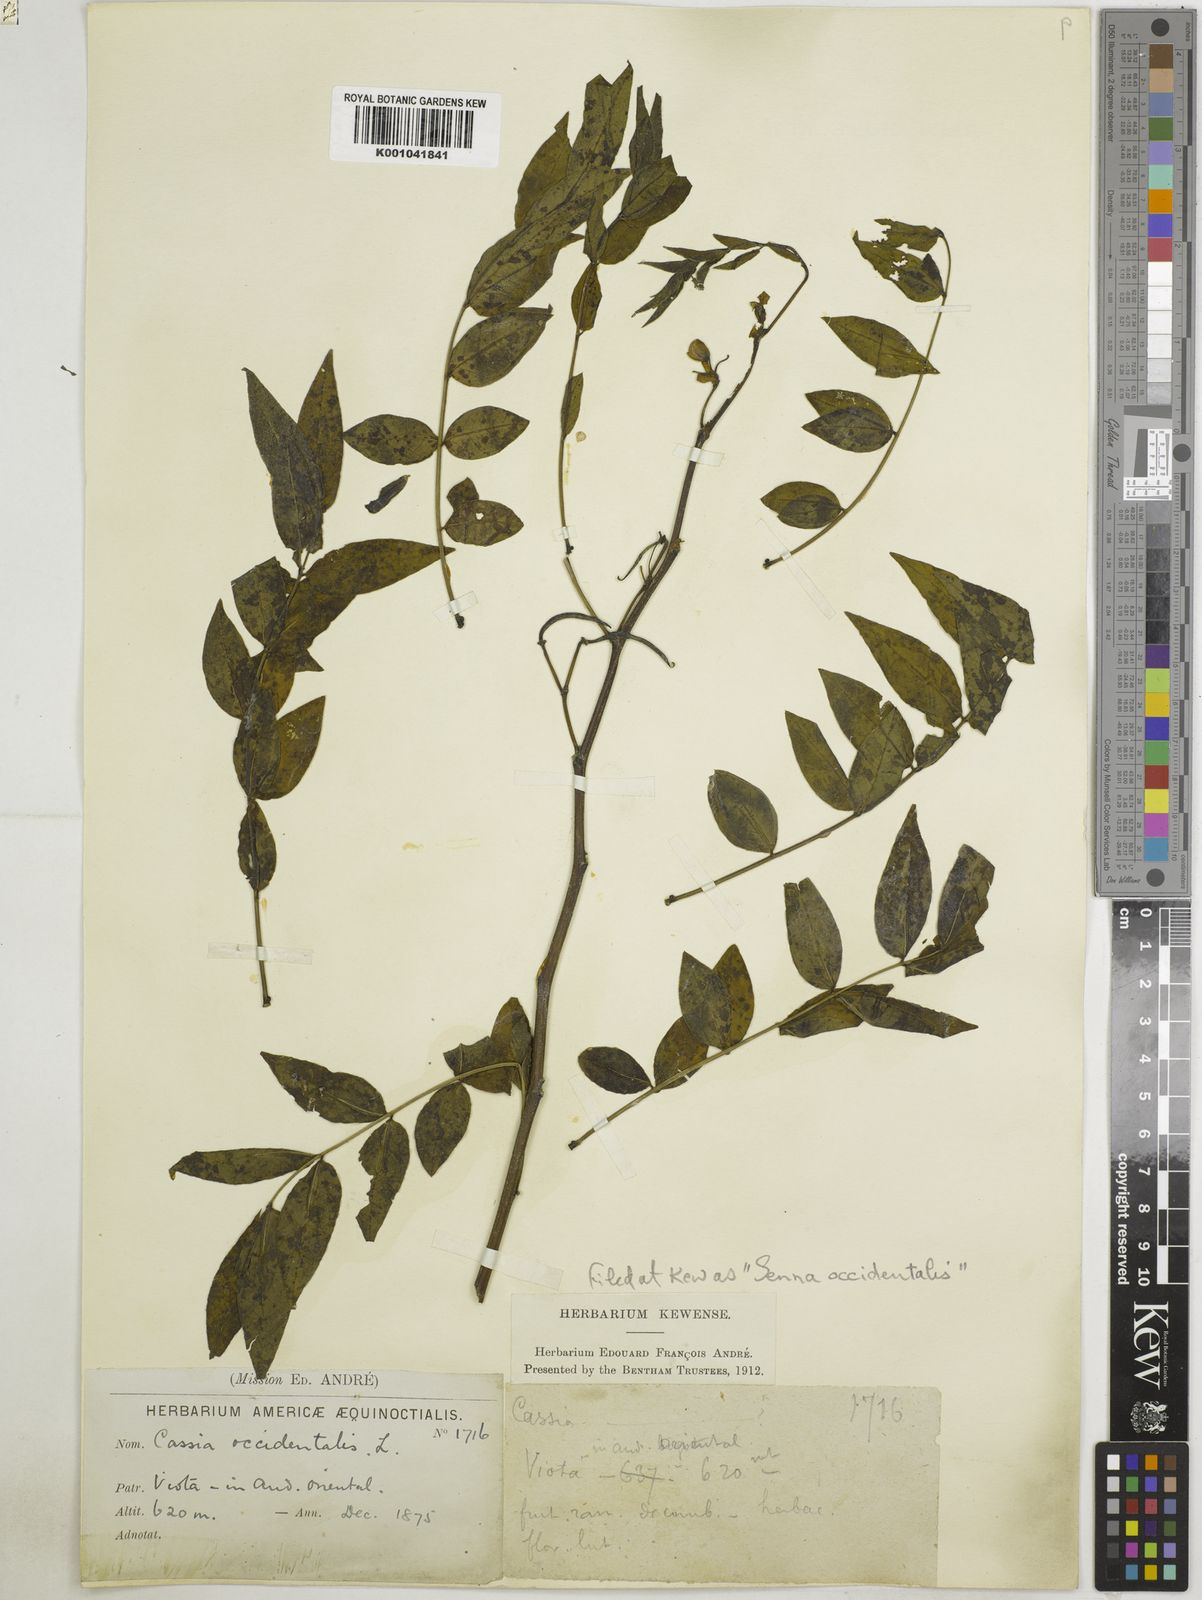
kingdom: Plantae
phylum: Tracheophyta
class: Magnoliopsida
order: Fabales
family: Fabaceae
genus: Senna
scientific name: Senna occidentalis
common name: Septicweed
